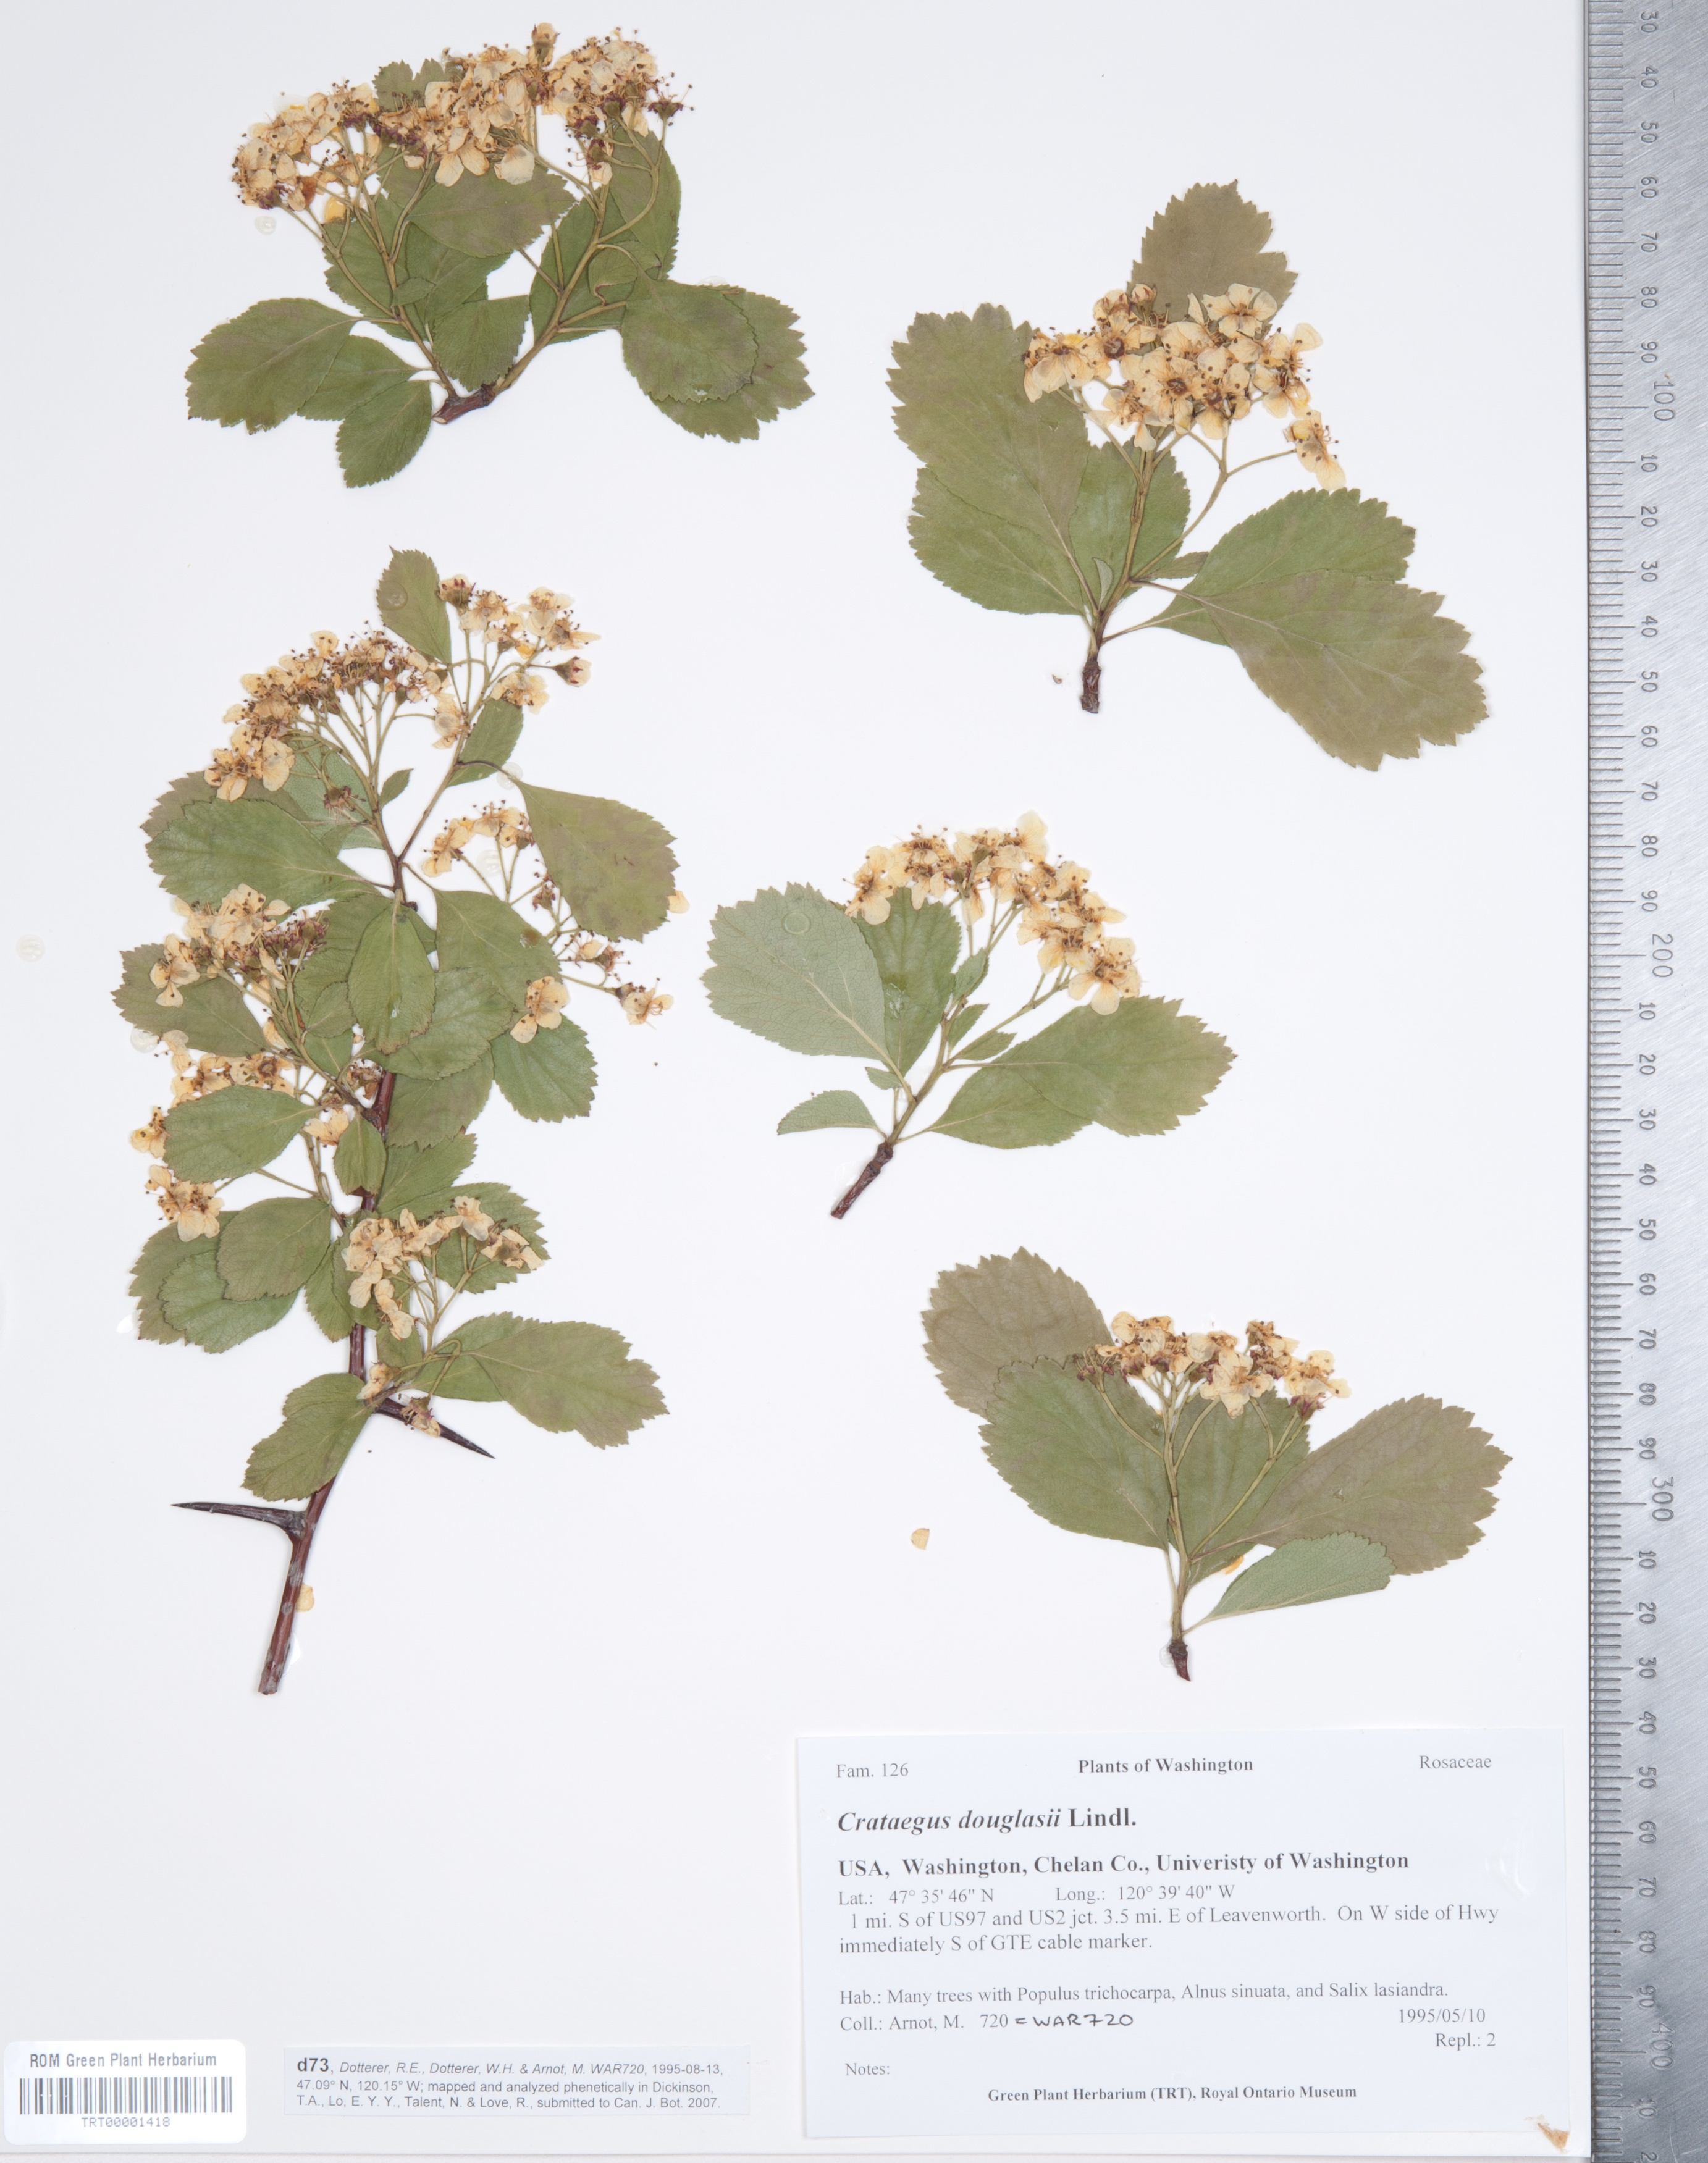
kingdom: Plantae
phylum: Tracheophyta
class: Magnoliopsida
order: Rosales
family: Rosaceae
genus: Crataegus
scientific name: Crataegus douglasii
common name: Black hawthorn
